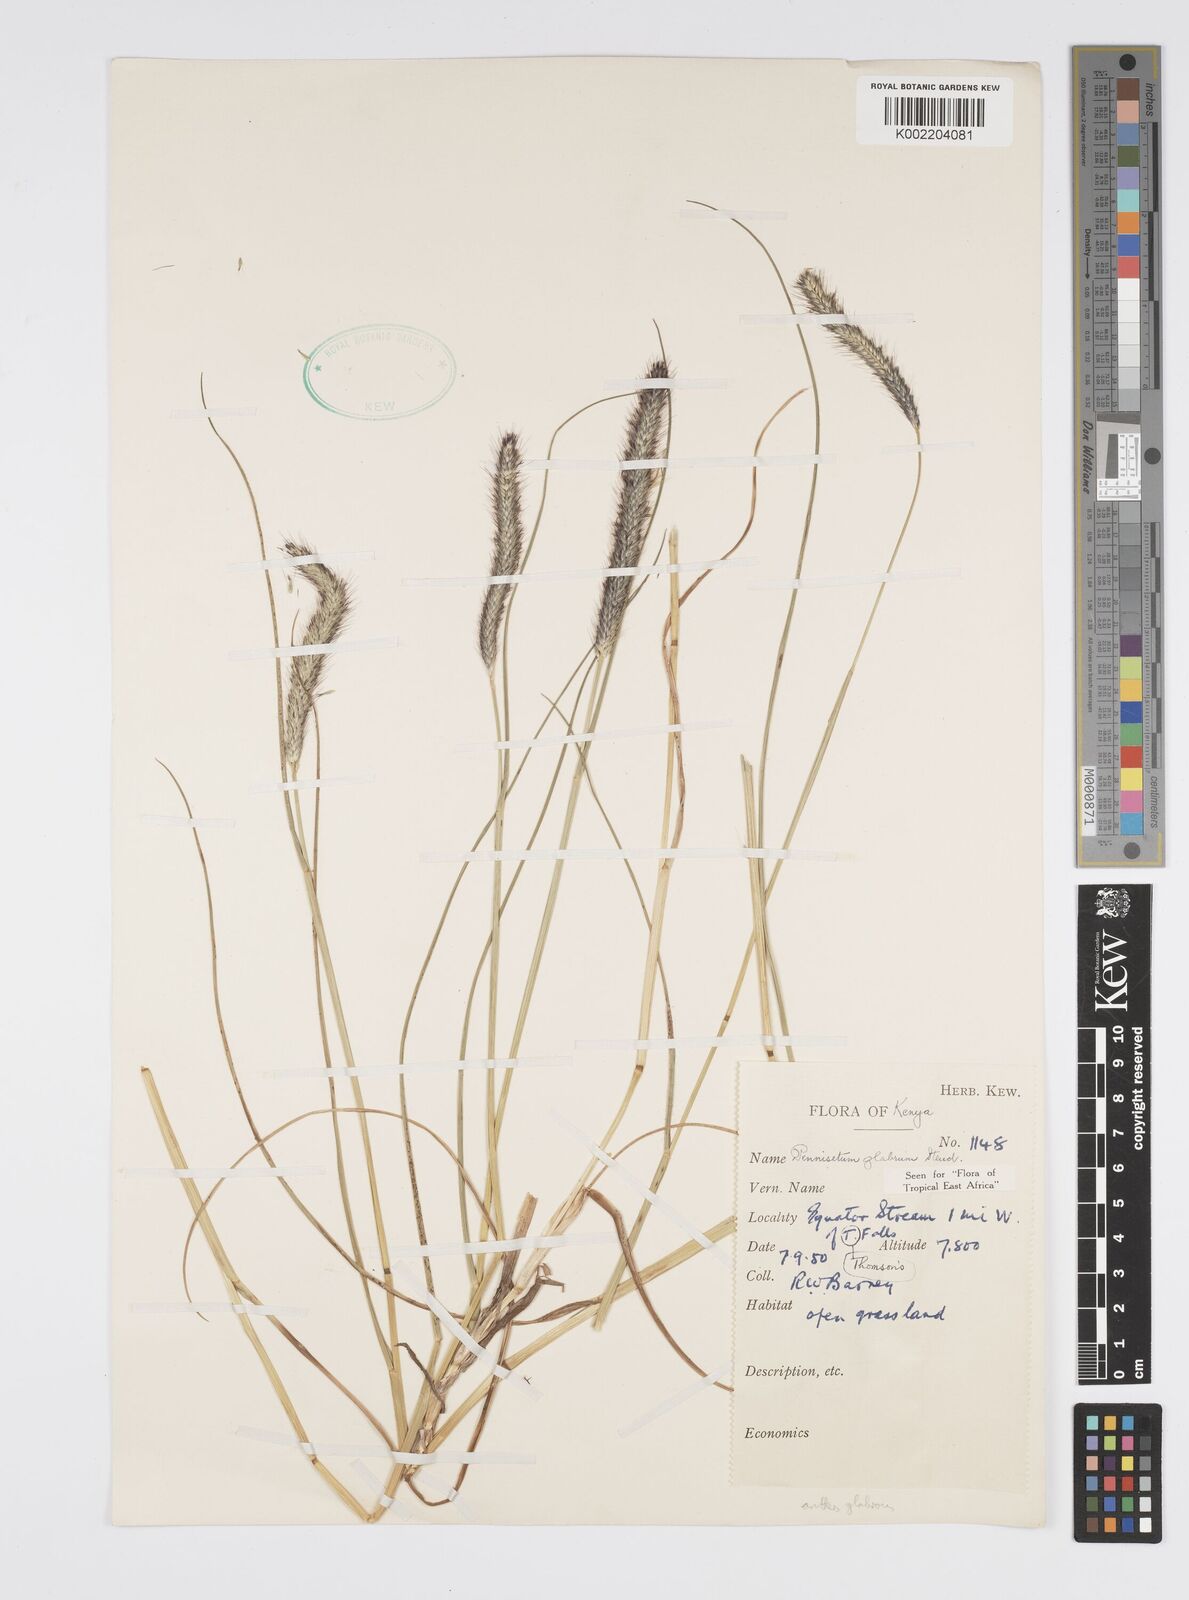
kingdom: Plantae
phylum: Tracheophyta
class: Liliopsida
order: Poales
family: Poaceae
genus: Cenchrus
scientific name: Cenchrus geniculatus
